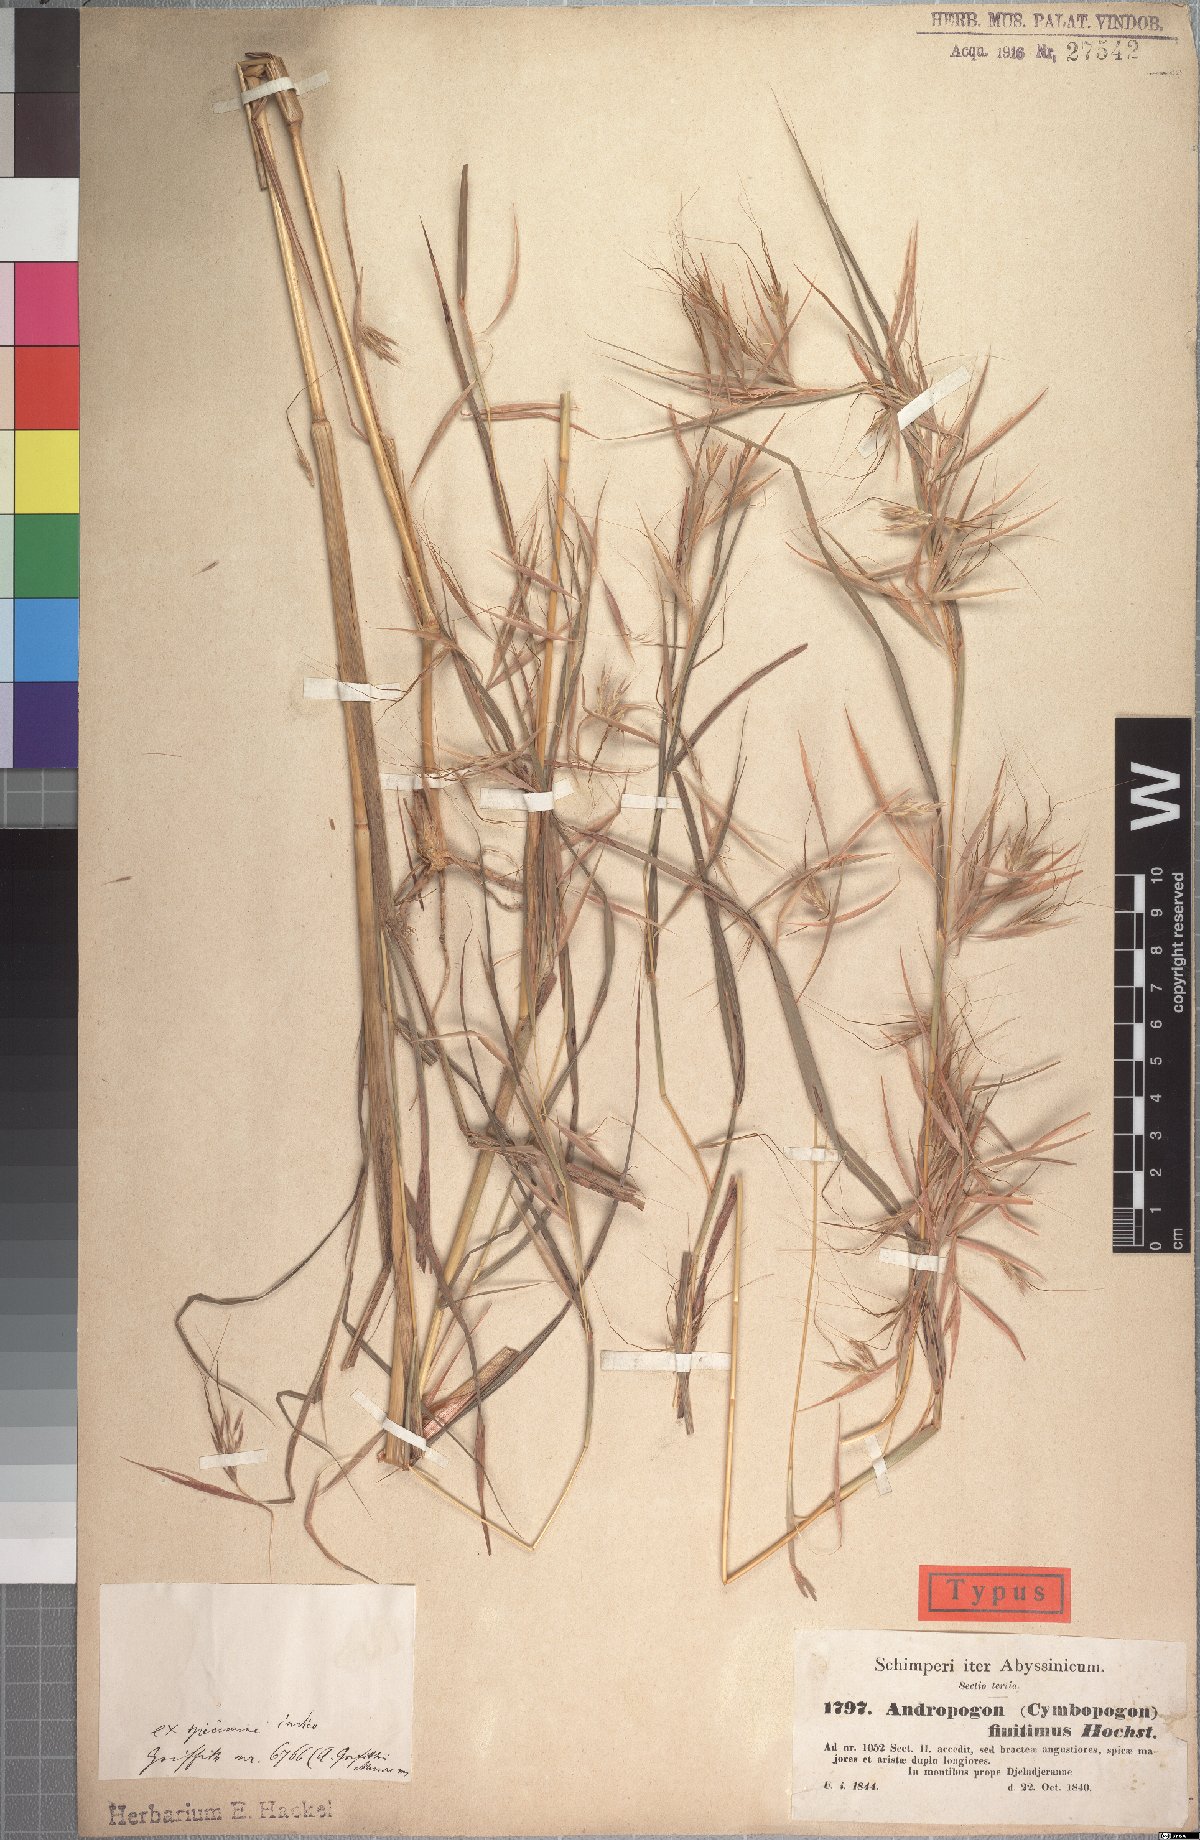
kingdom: Plantae
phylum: Tracheophyta
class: Liliopsida
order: Poales
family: Poaceae
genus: Hyparrhenia
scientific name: Hyparrhenia finitima
